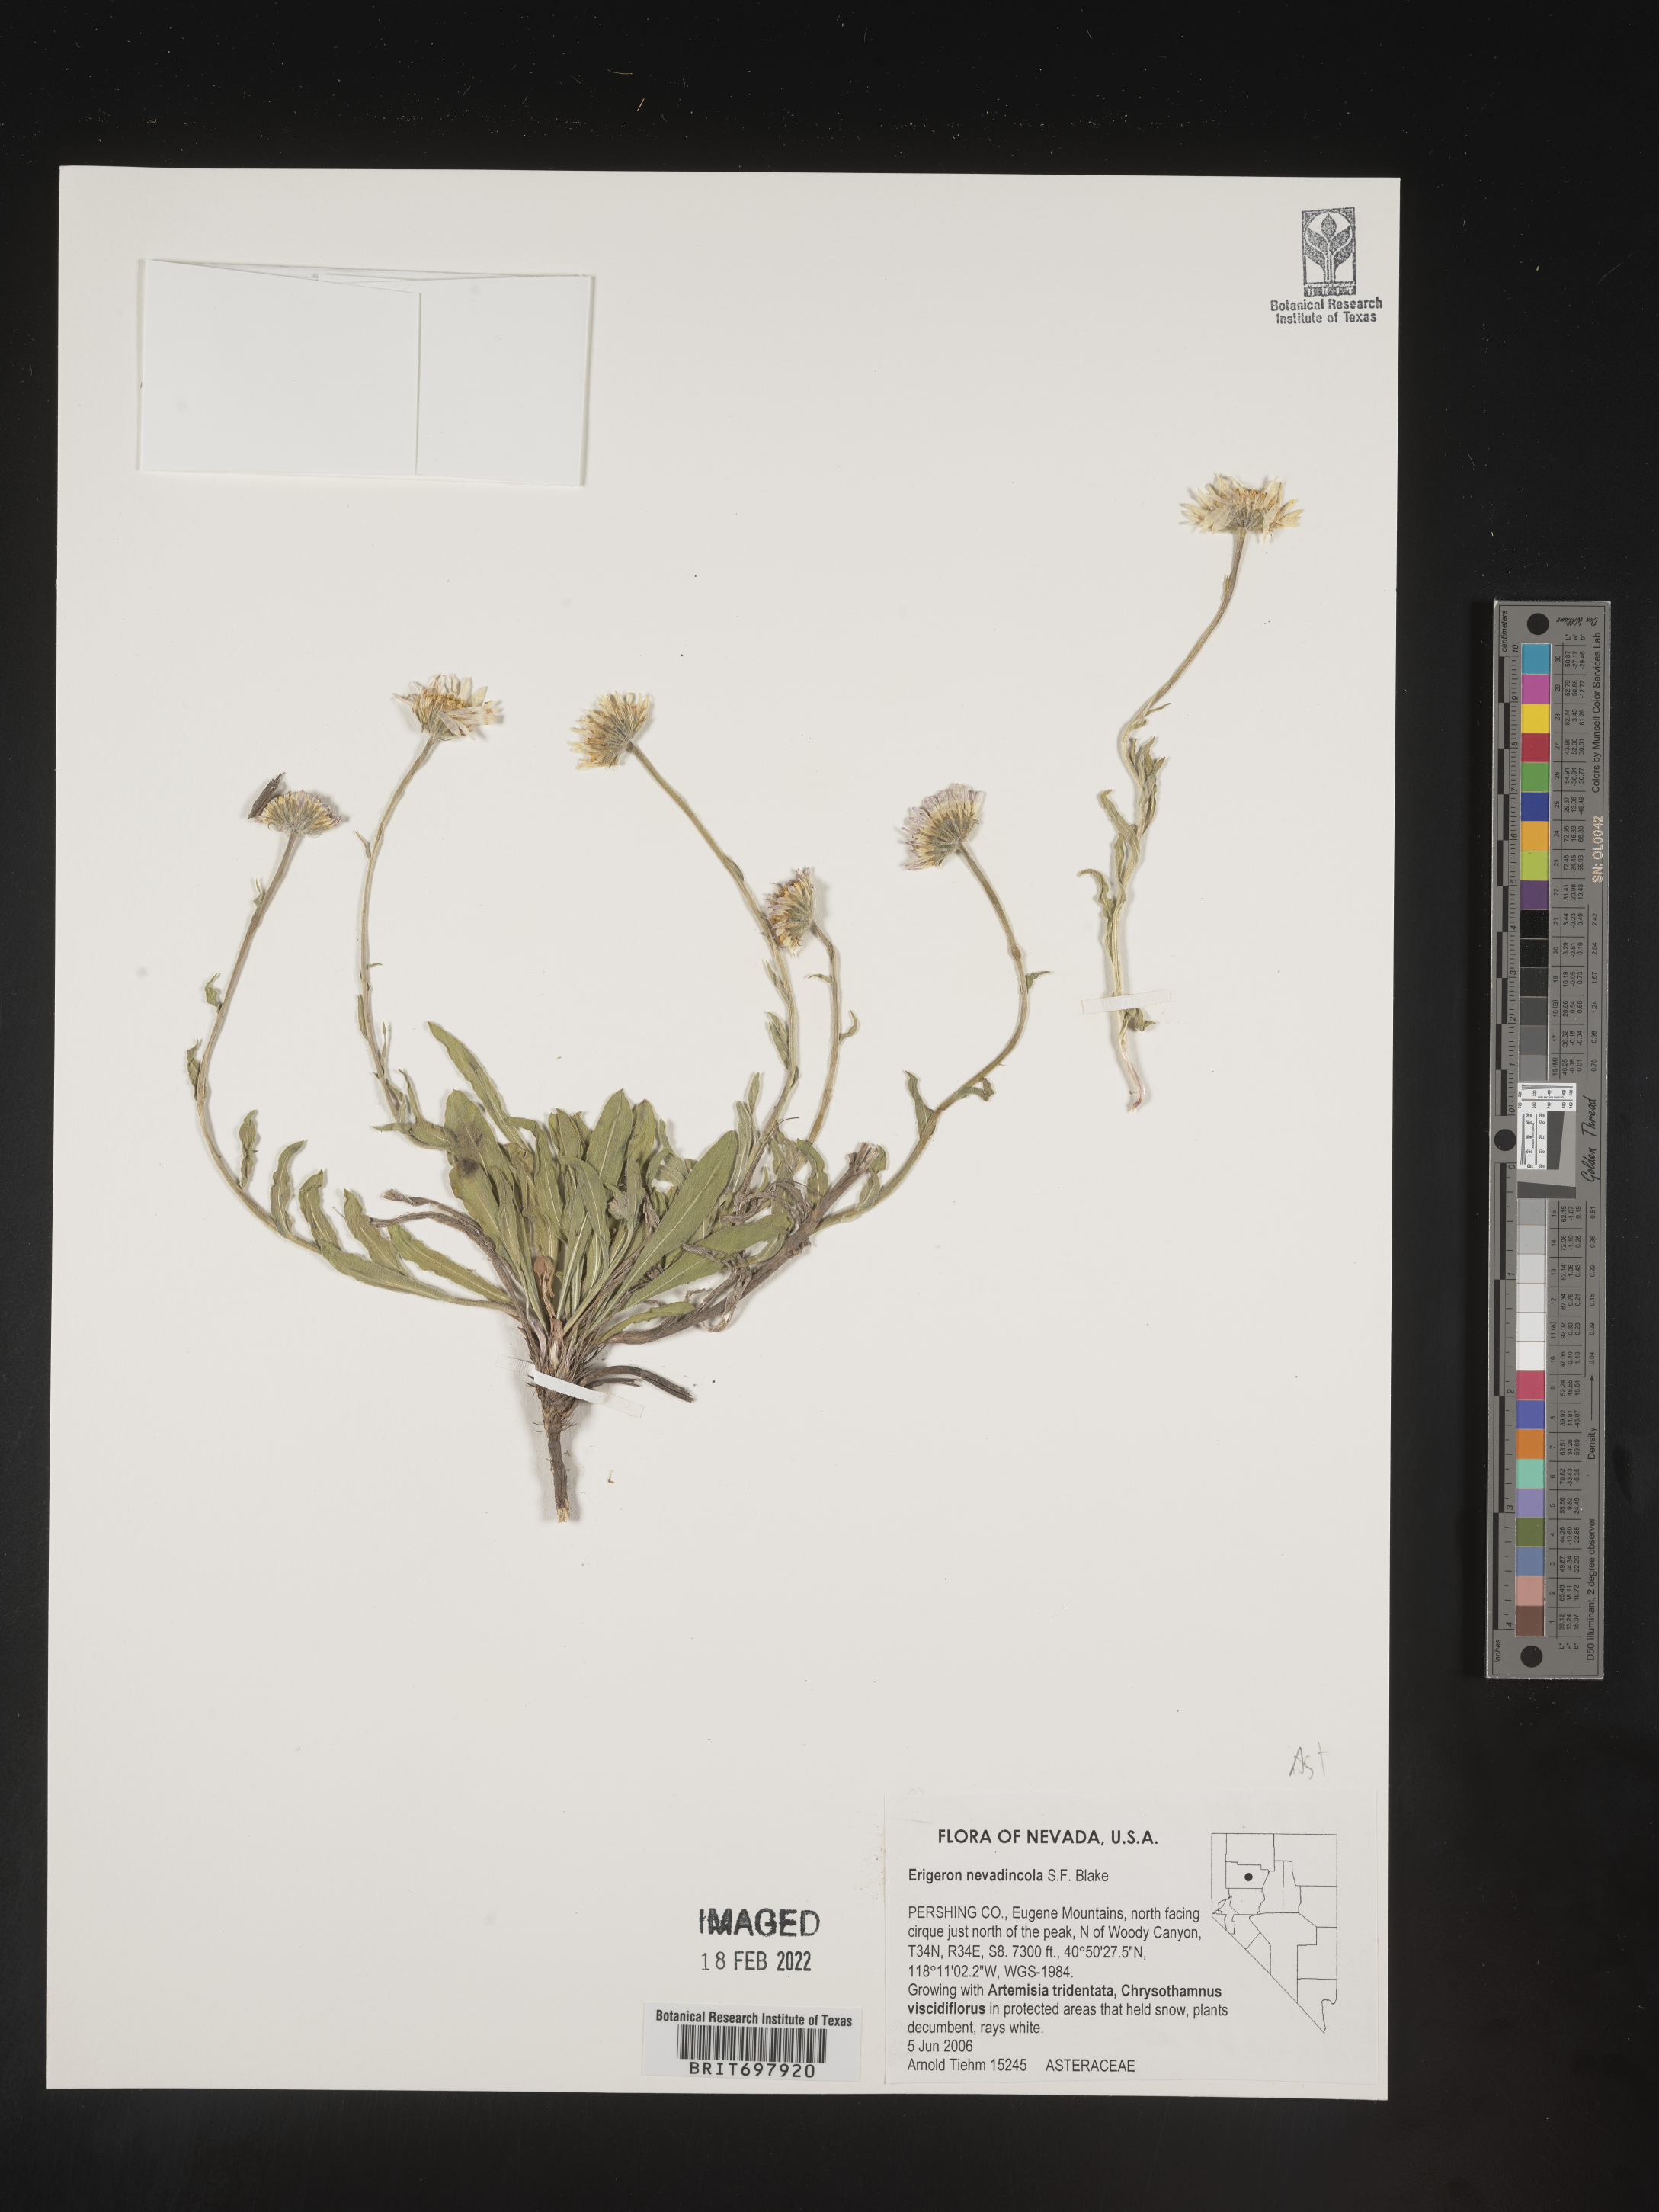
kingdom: Plantae
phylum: Tracheophyta
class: Magnoliopsida
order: Asterales
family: Asteraceae
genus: Erigeron
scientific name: Erigeron eatonii
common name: Eaton's fleabane
